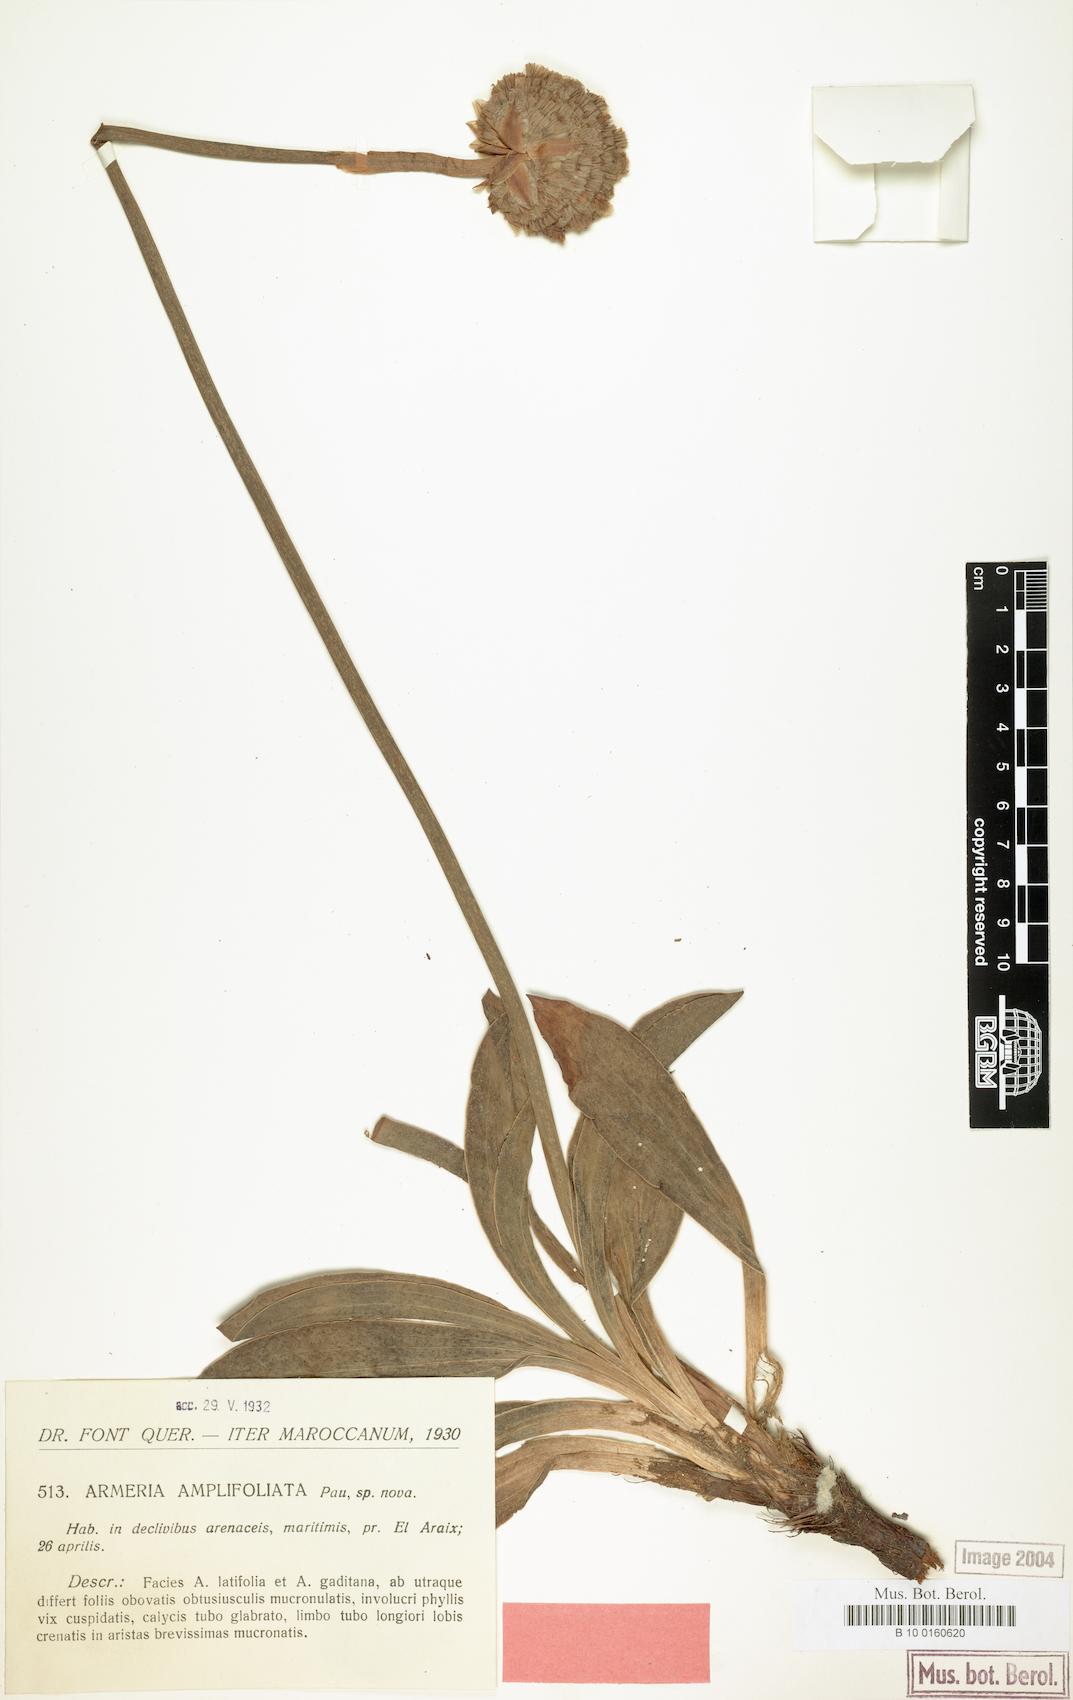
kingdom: Plantae
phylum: Tracheophyta
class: Magnoliopsida
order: Caryophyllales
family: Plumbaginaceae
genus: Armeria
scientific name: Armeria tingitana
